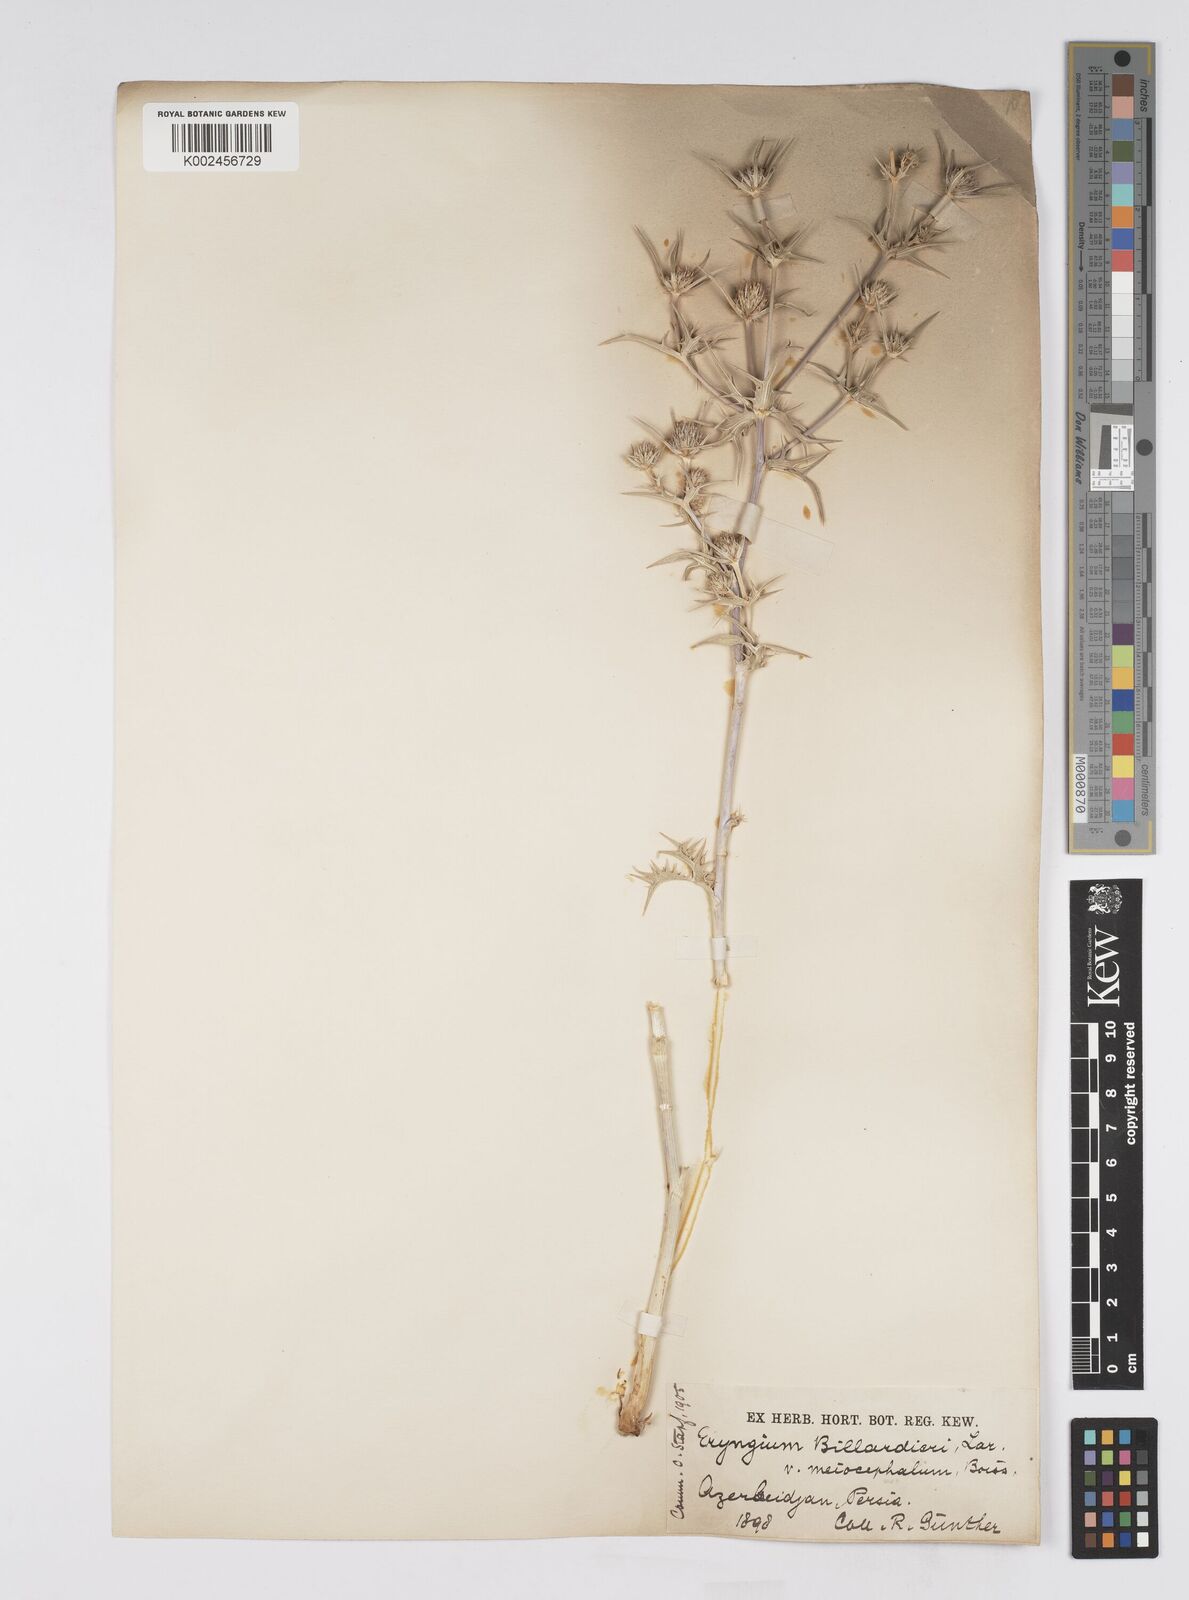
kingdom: Plantae
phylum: Tracheophyta
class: Magnoliopsida
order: Apiales
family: Apiaceae
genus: Eryngium
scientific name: Eryngium billardierei
